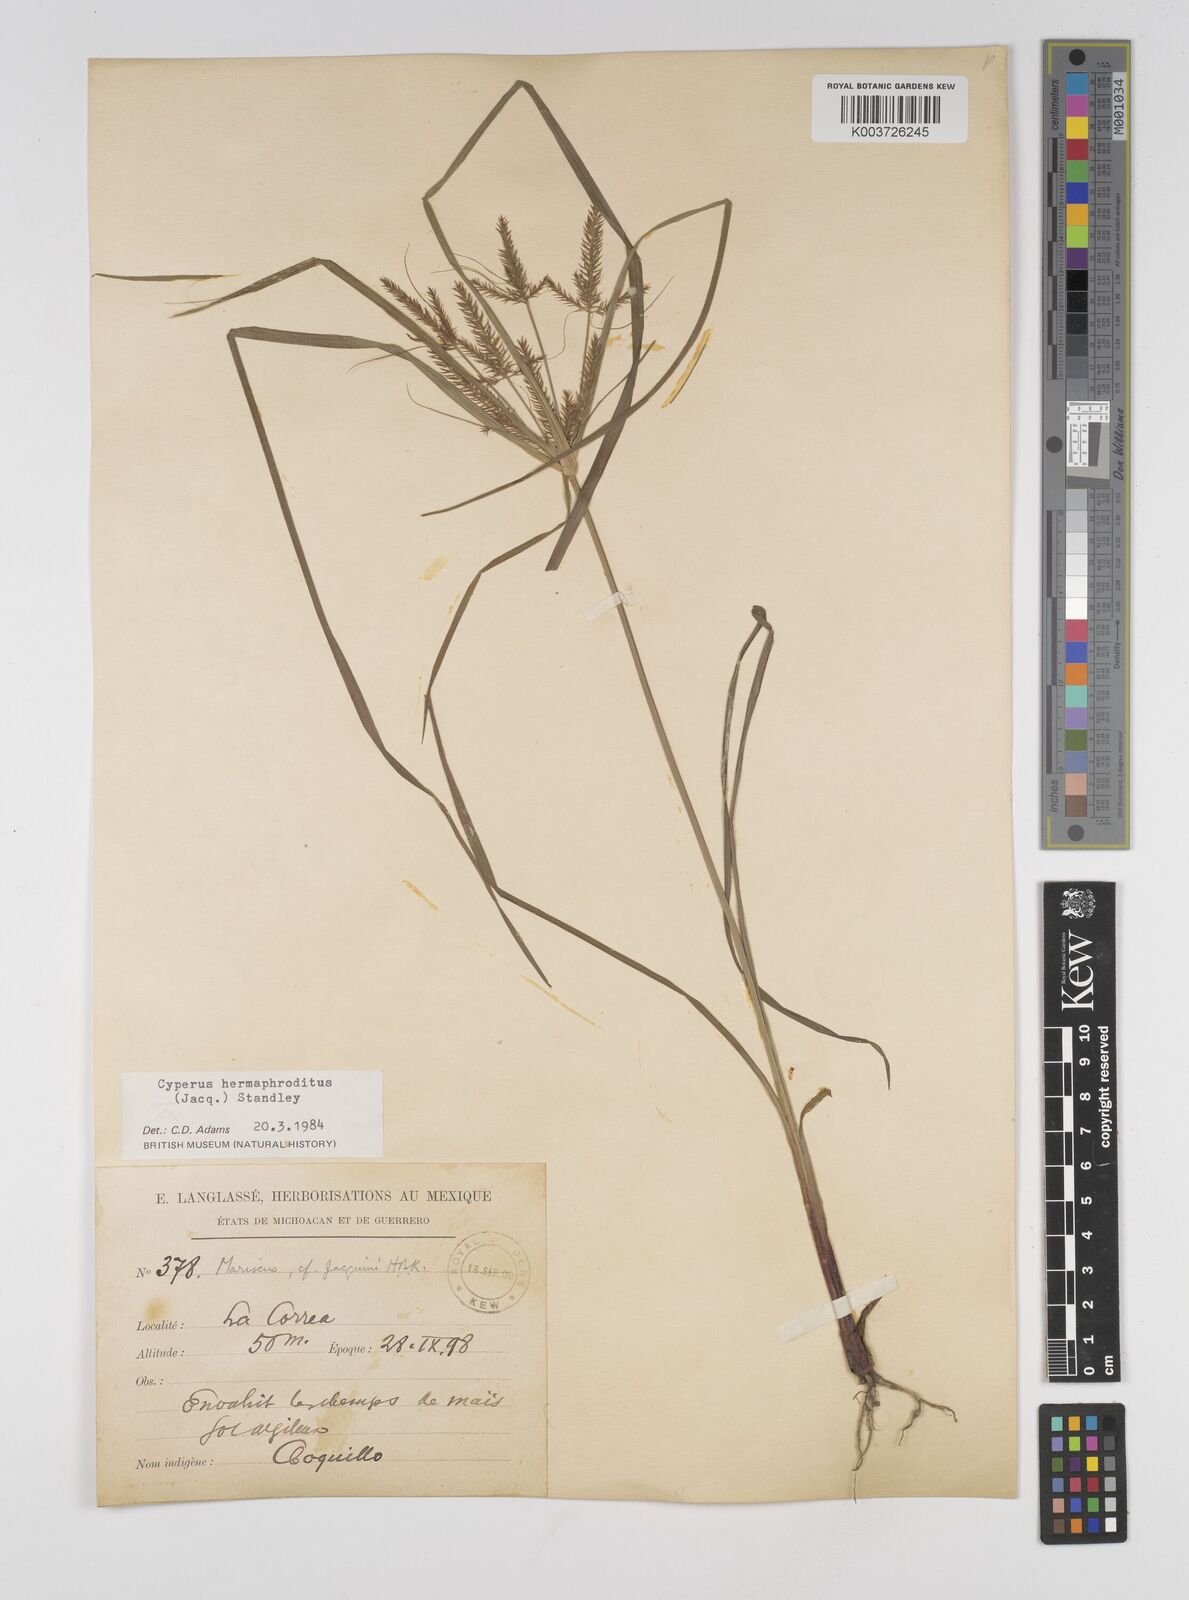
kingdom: Plantae
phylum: Tracheophyta
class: Liliopsida
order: Poales
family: Cyperaceae
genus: Cyperus
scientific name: Cyperus hermaphroditus
